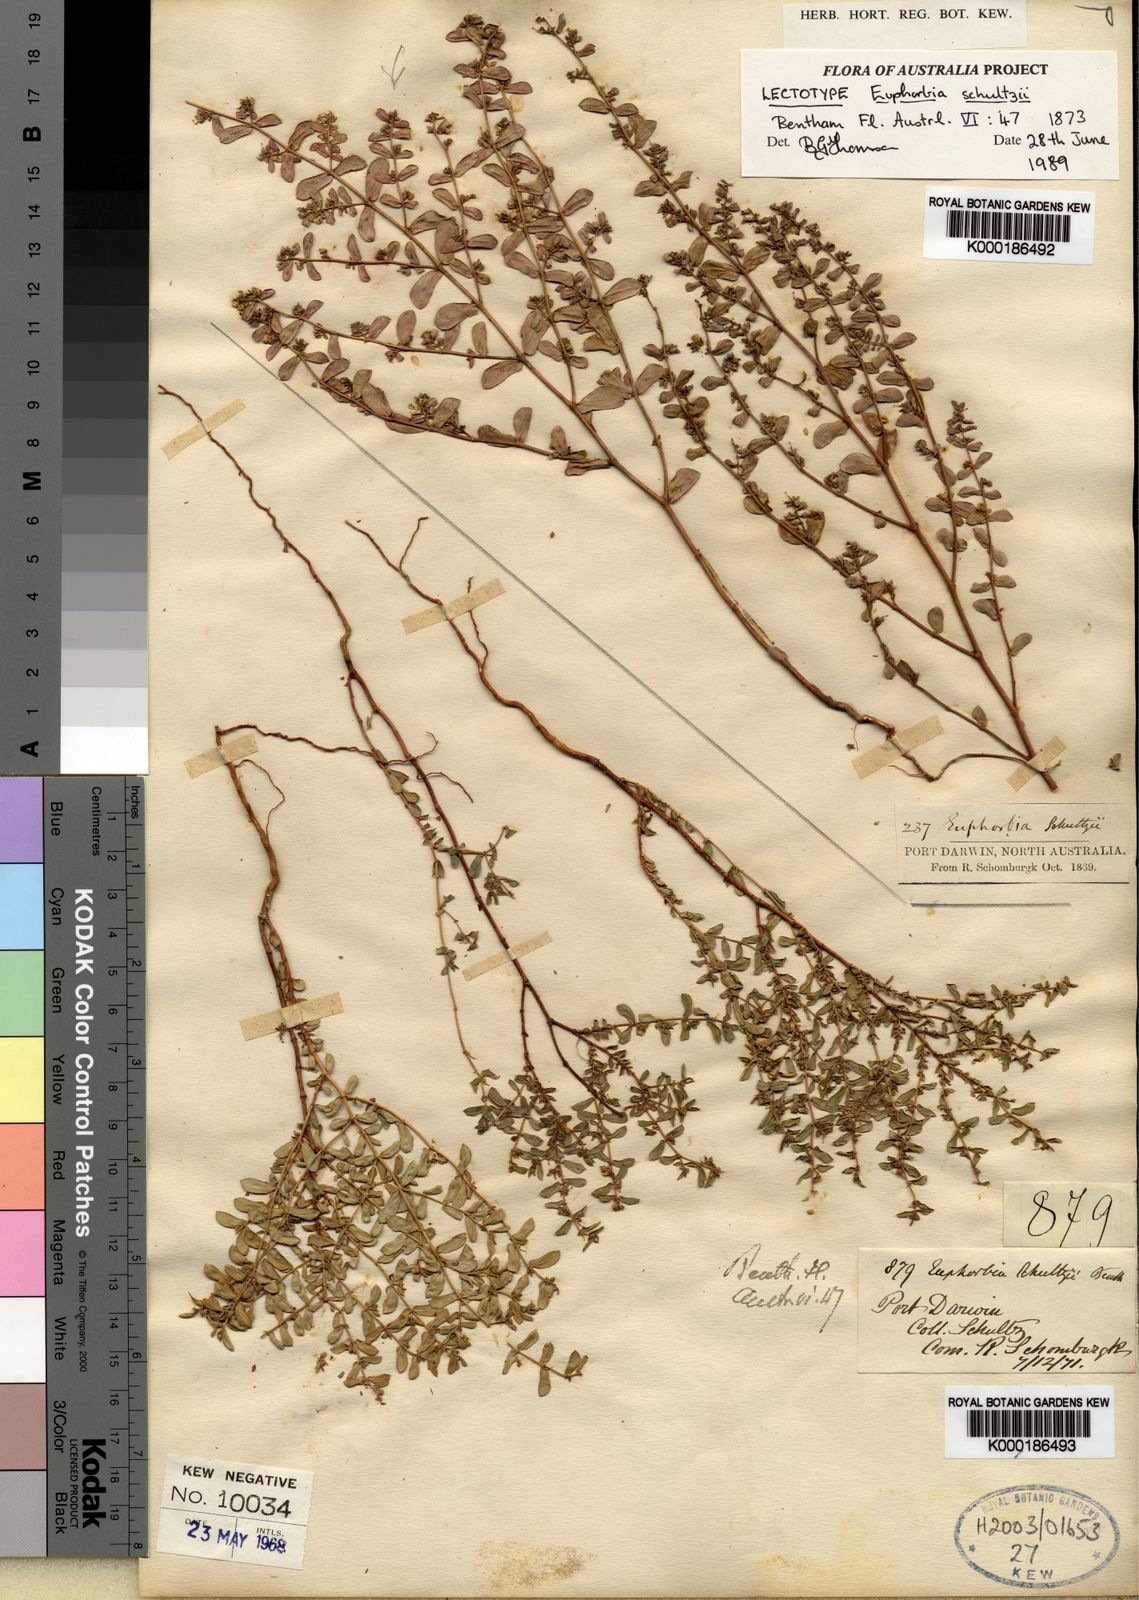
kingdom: Plantae
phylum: Tracheophyta
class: Magnoliopsida
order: Malpighiales
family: Euphorbiaceae
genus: Euphorbia
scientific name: Euphorbia schultzii
